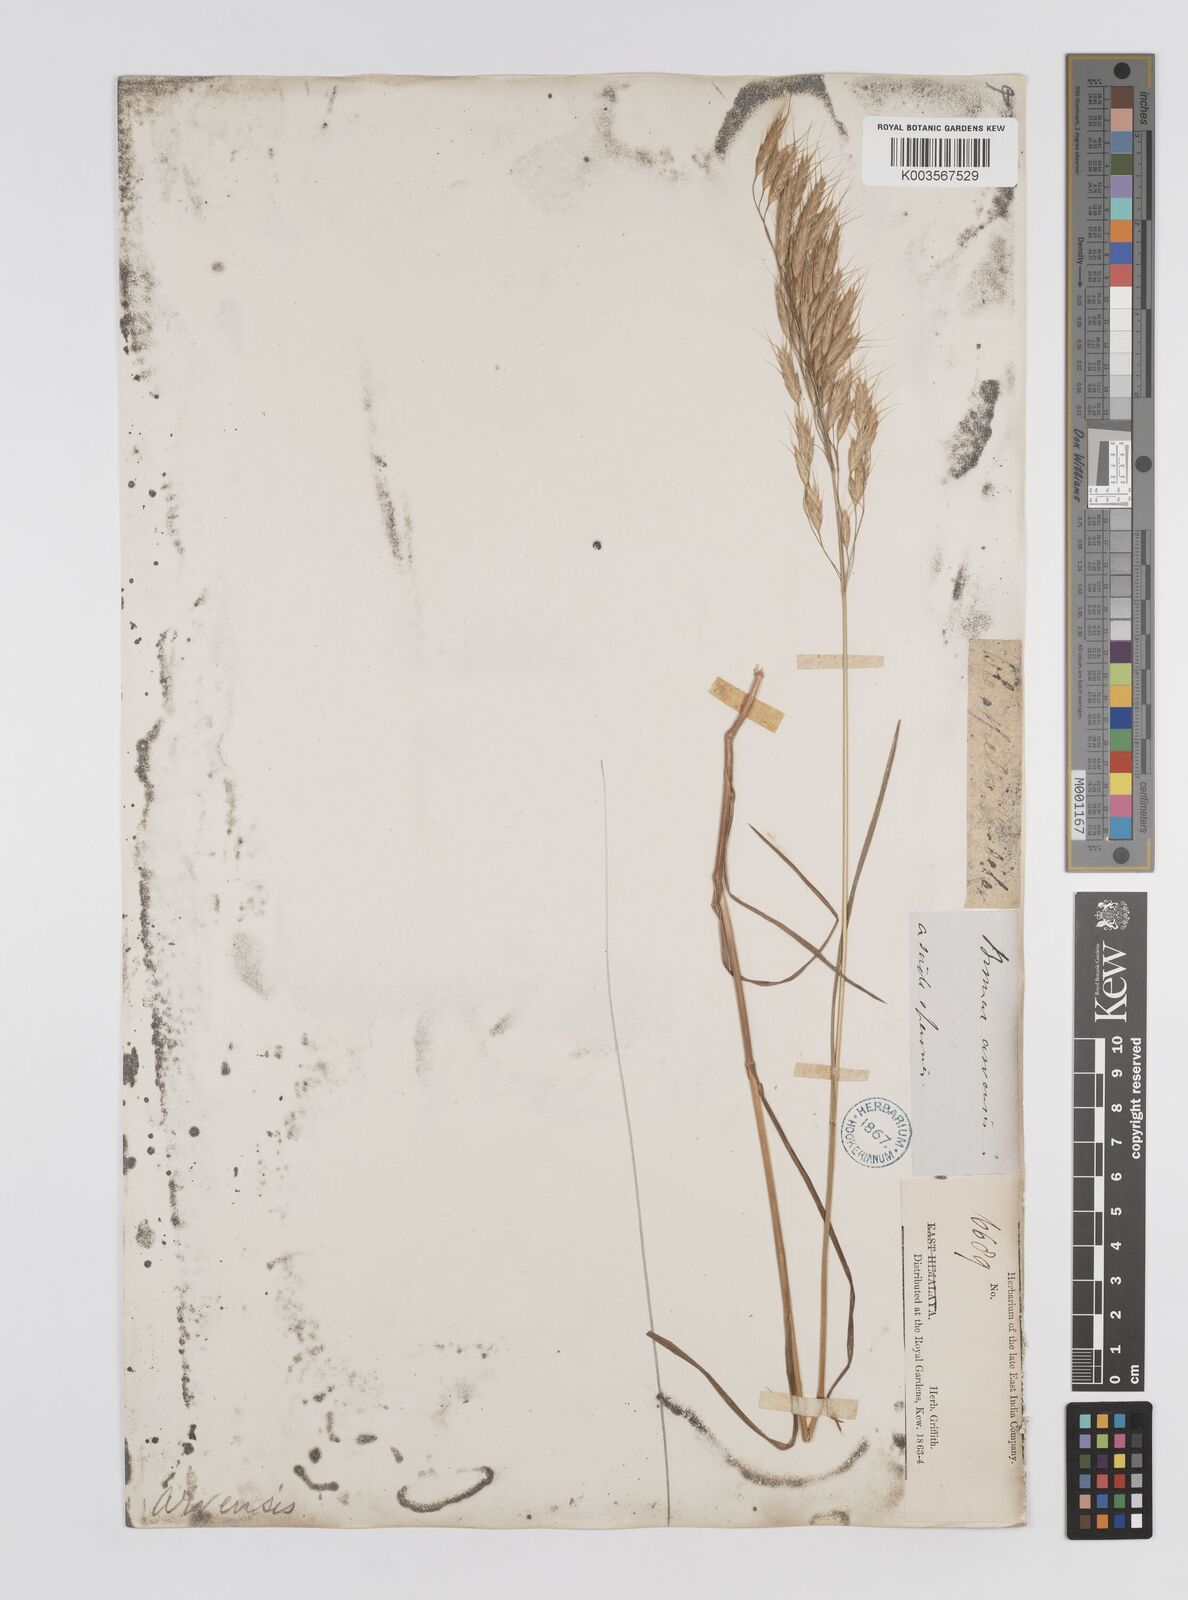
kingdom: Plantae
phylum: Tracheophyta
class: Liliopsida
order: Poales
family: Poaceae
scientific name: Poaceae
